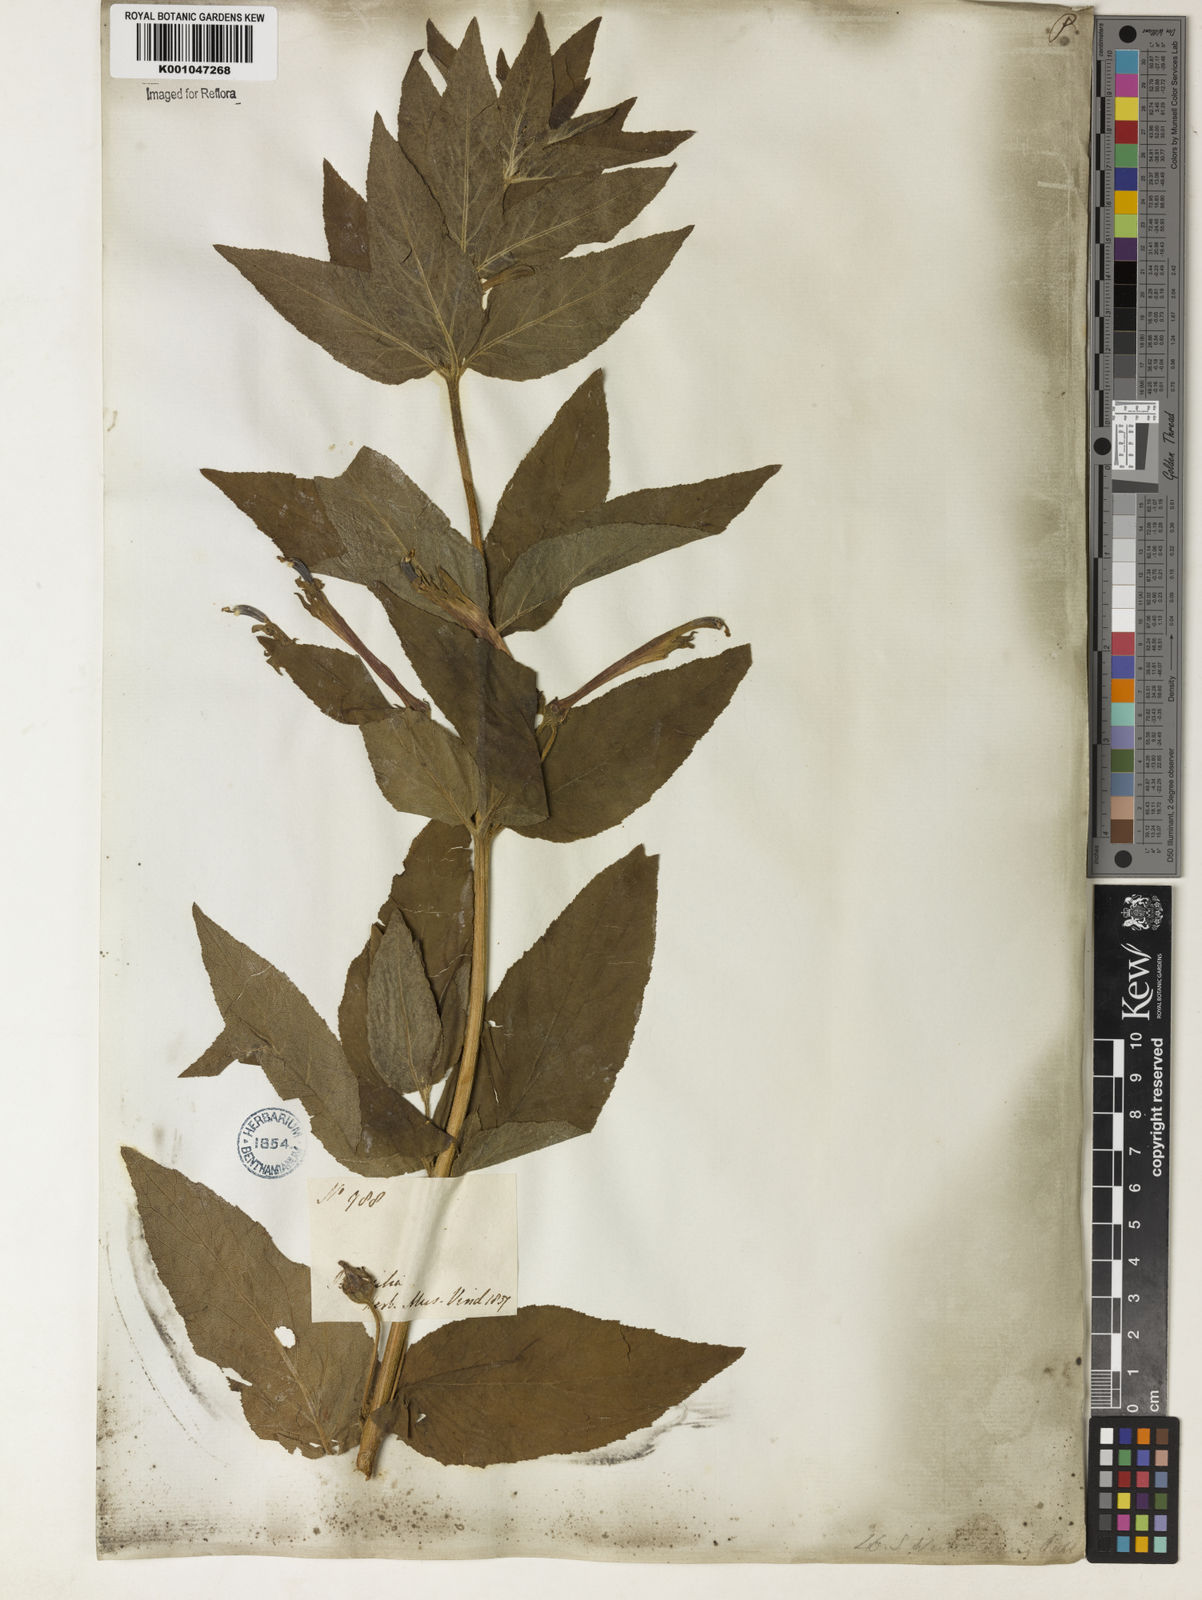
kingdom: Plantae
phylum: Tracheophyta
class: Magnoliopsida
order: Asterales
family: Campanulaceae
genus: Siphocampylus
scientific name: Siphocampylus westinianus
